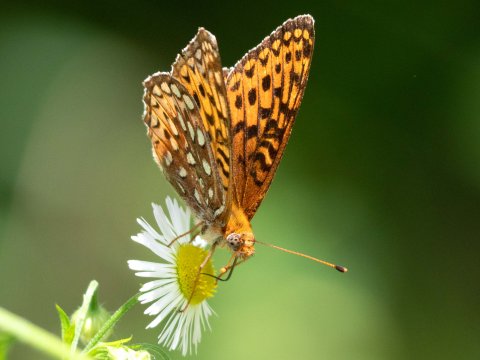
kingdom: Animalia
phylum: Arthropoda
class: Insecta
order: Lepidoptera
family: Nymphalidae
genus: Speyeria
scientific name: Speyeria atlantis
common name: Atlantis Fritillary
